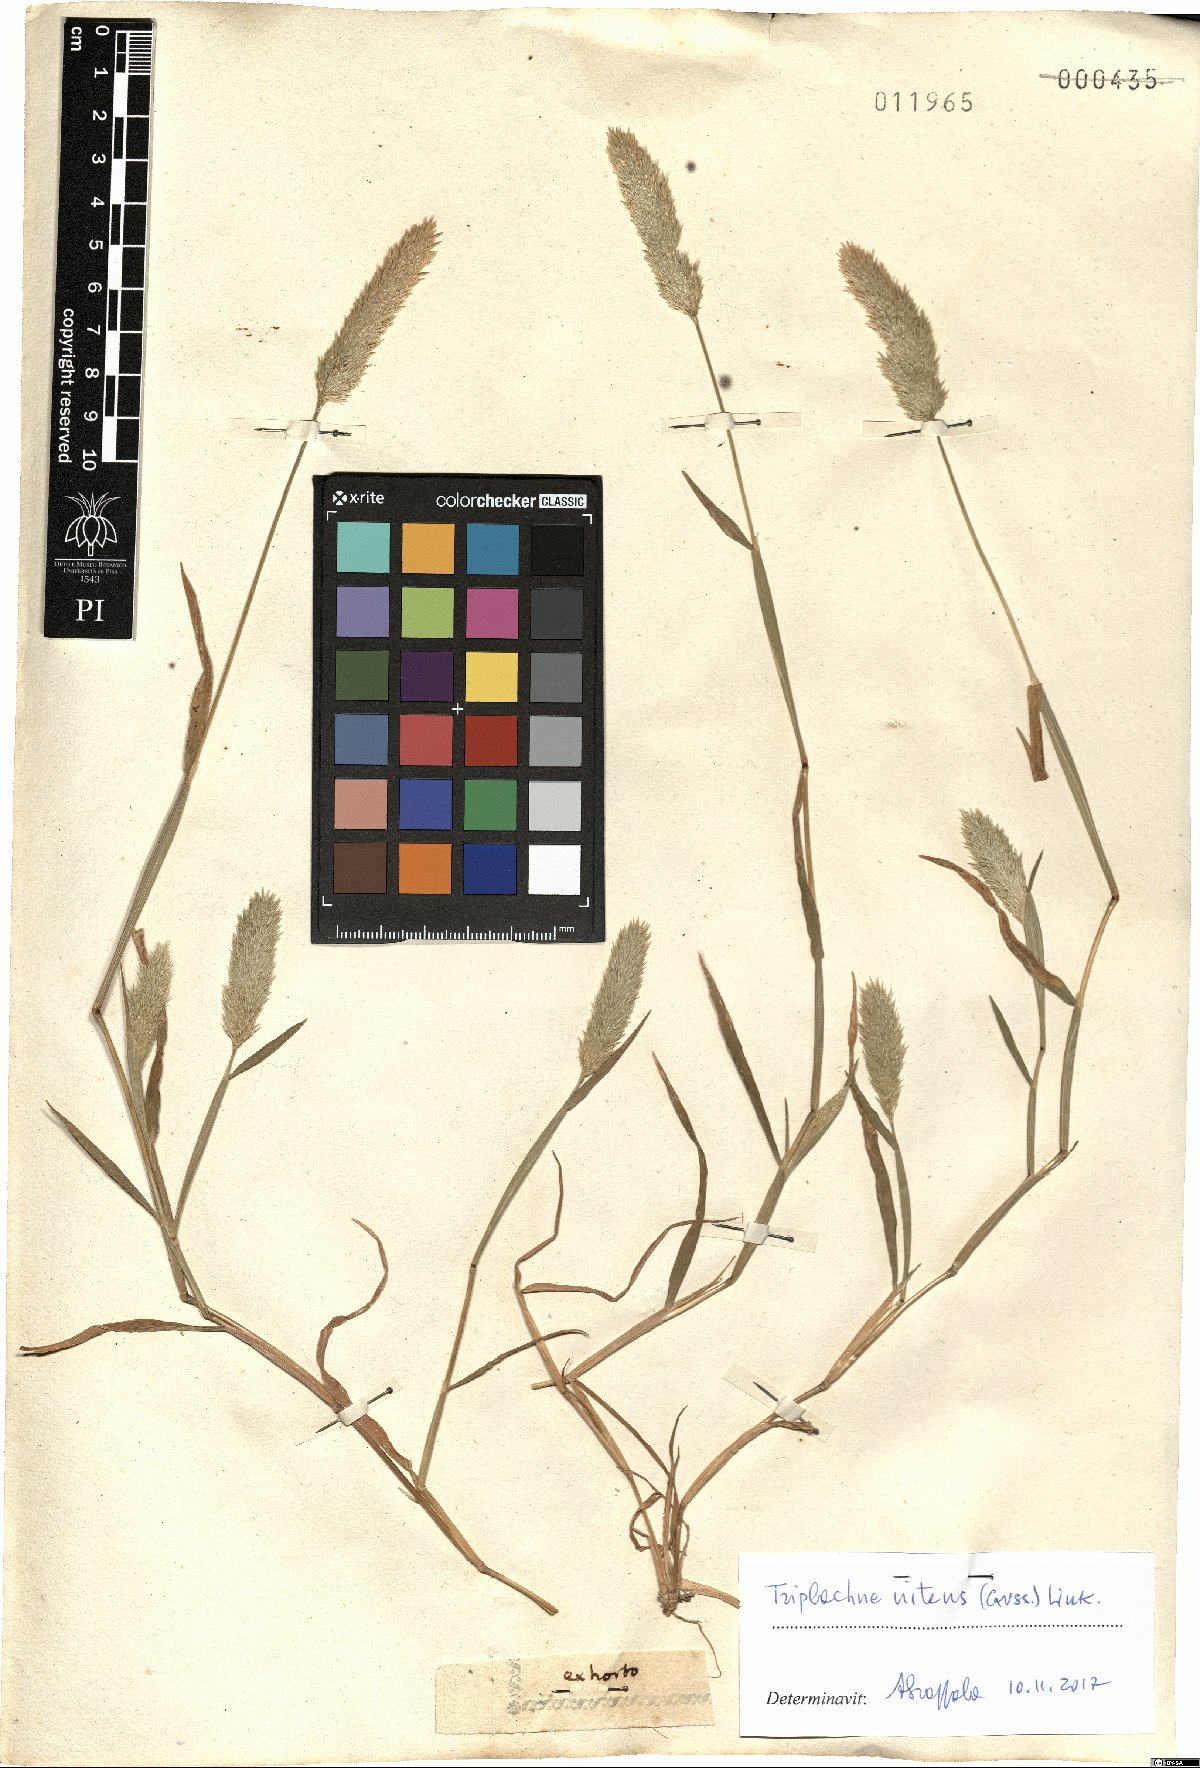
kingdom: Plantae
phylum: Tracheophyta
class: Liliopsida
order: Poales
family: Poaceae
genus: Triplachne
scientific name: Triplachne nitens
